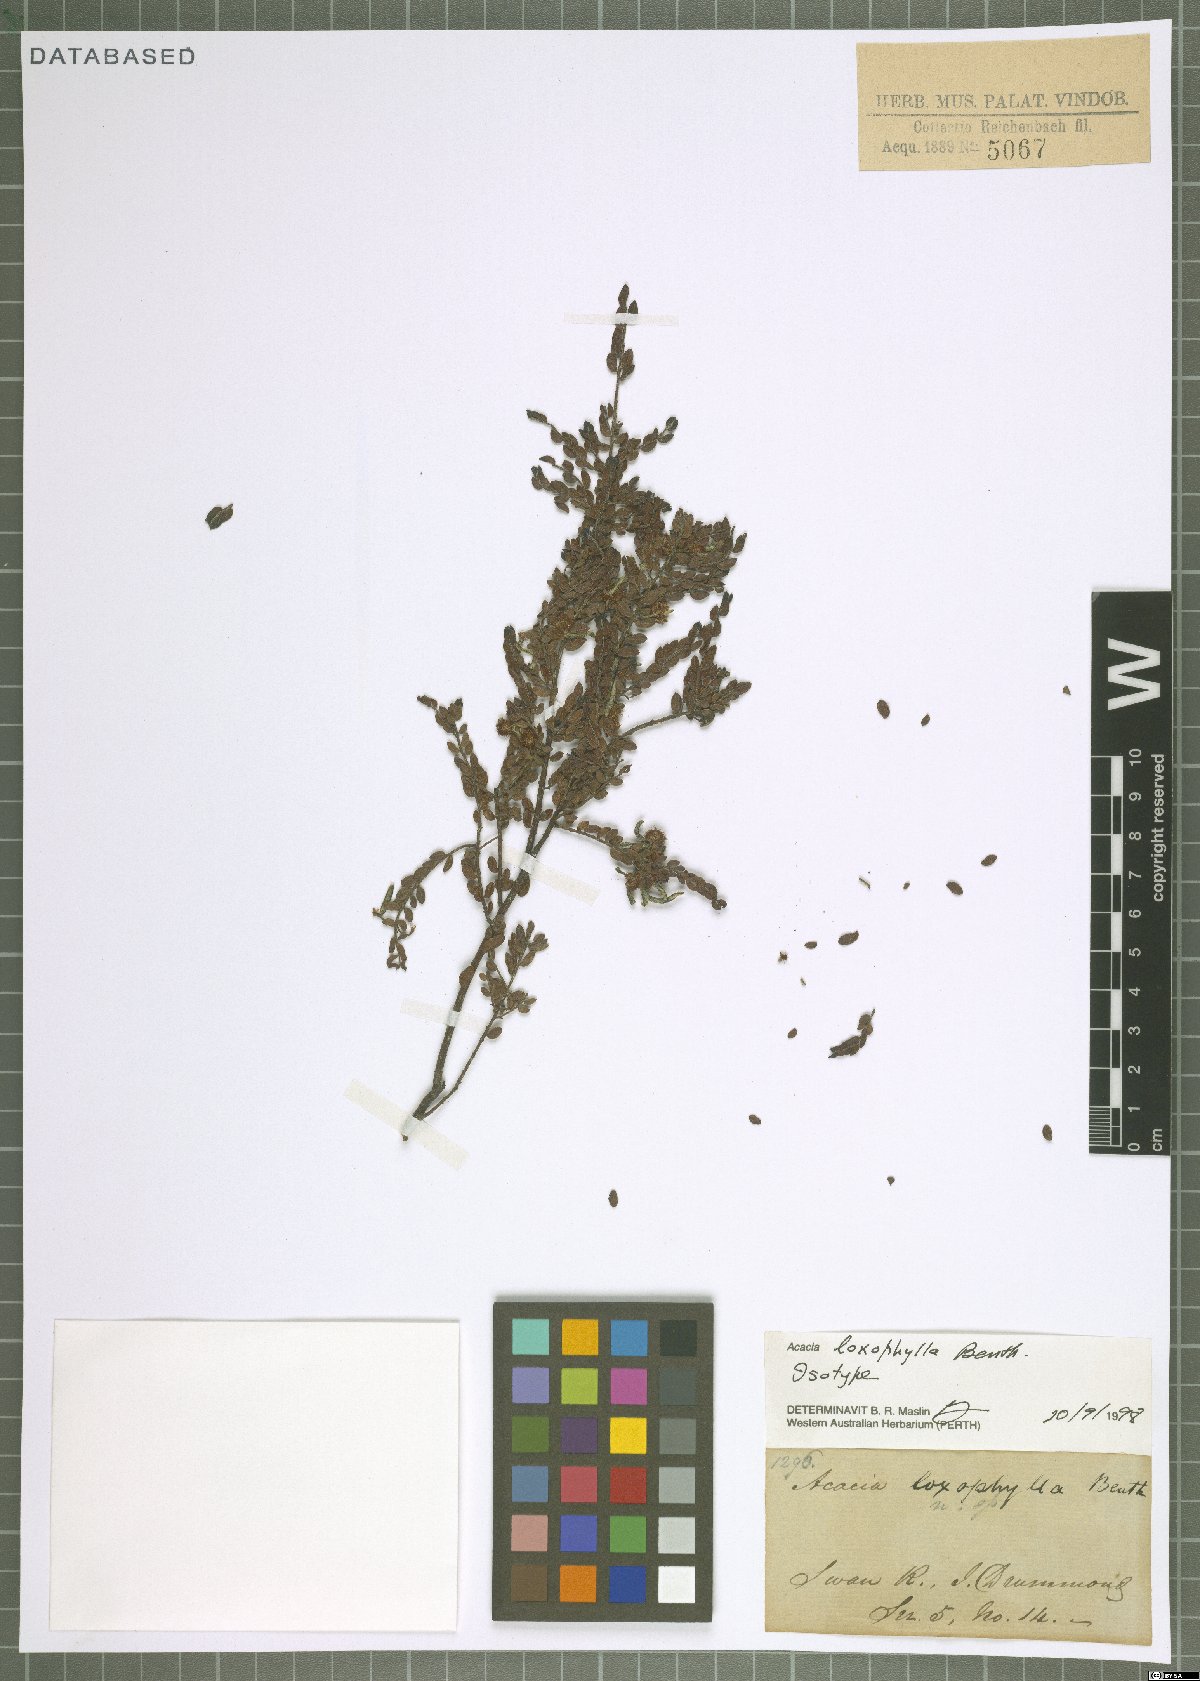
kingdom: Plantae
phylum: Tracheophyta
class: Magnoliopsida
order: Fabales
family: Fabaceae
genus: Acacia
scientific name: Acacia loxophylla
